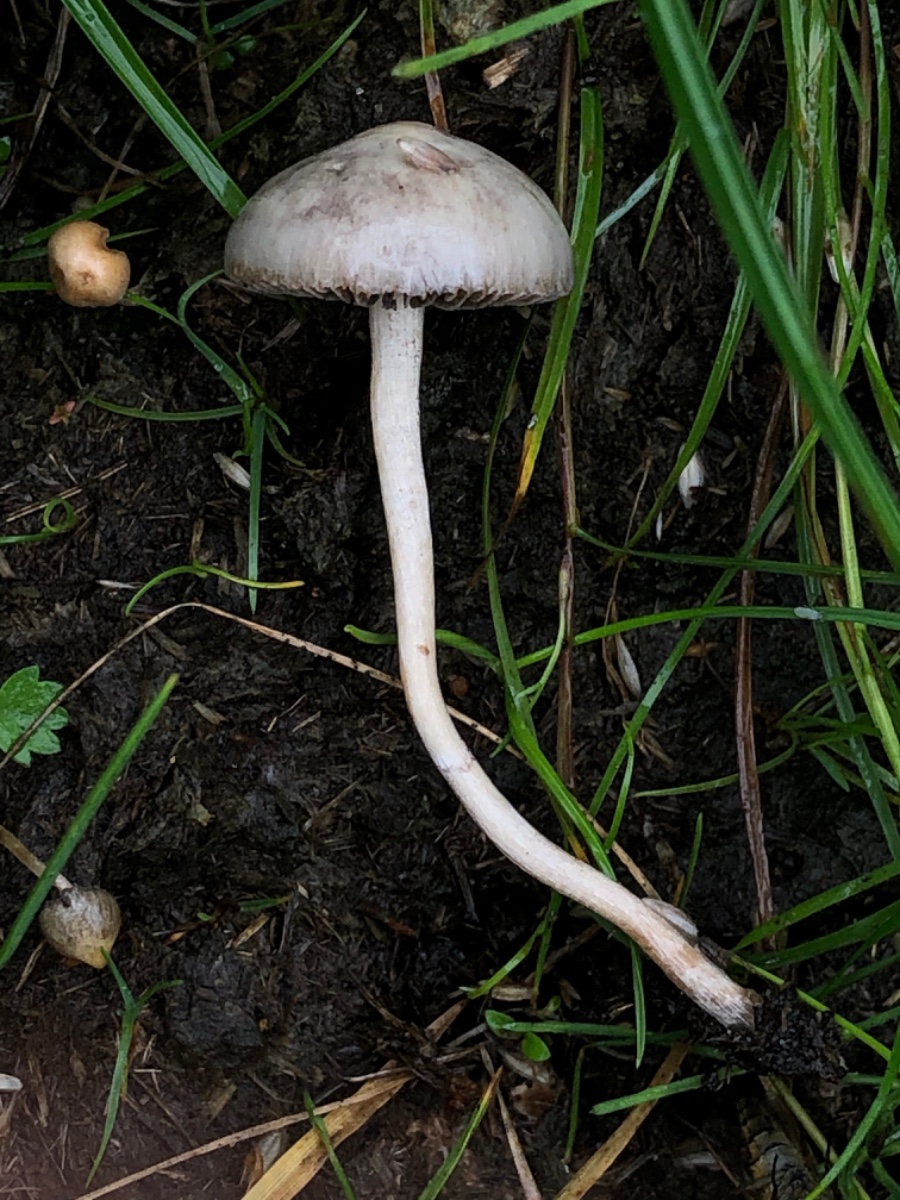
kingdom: Fungi
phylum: Basidiomycota
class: Agaricomycetes
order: Agaricales
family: Strophariaceae
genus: Protostropharia
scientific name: Protostropharia semiglobata
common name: halvkugleformet bredblad
